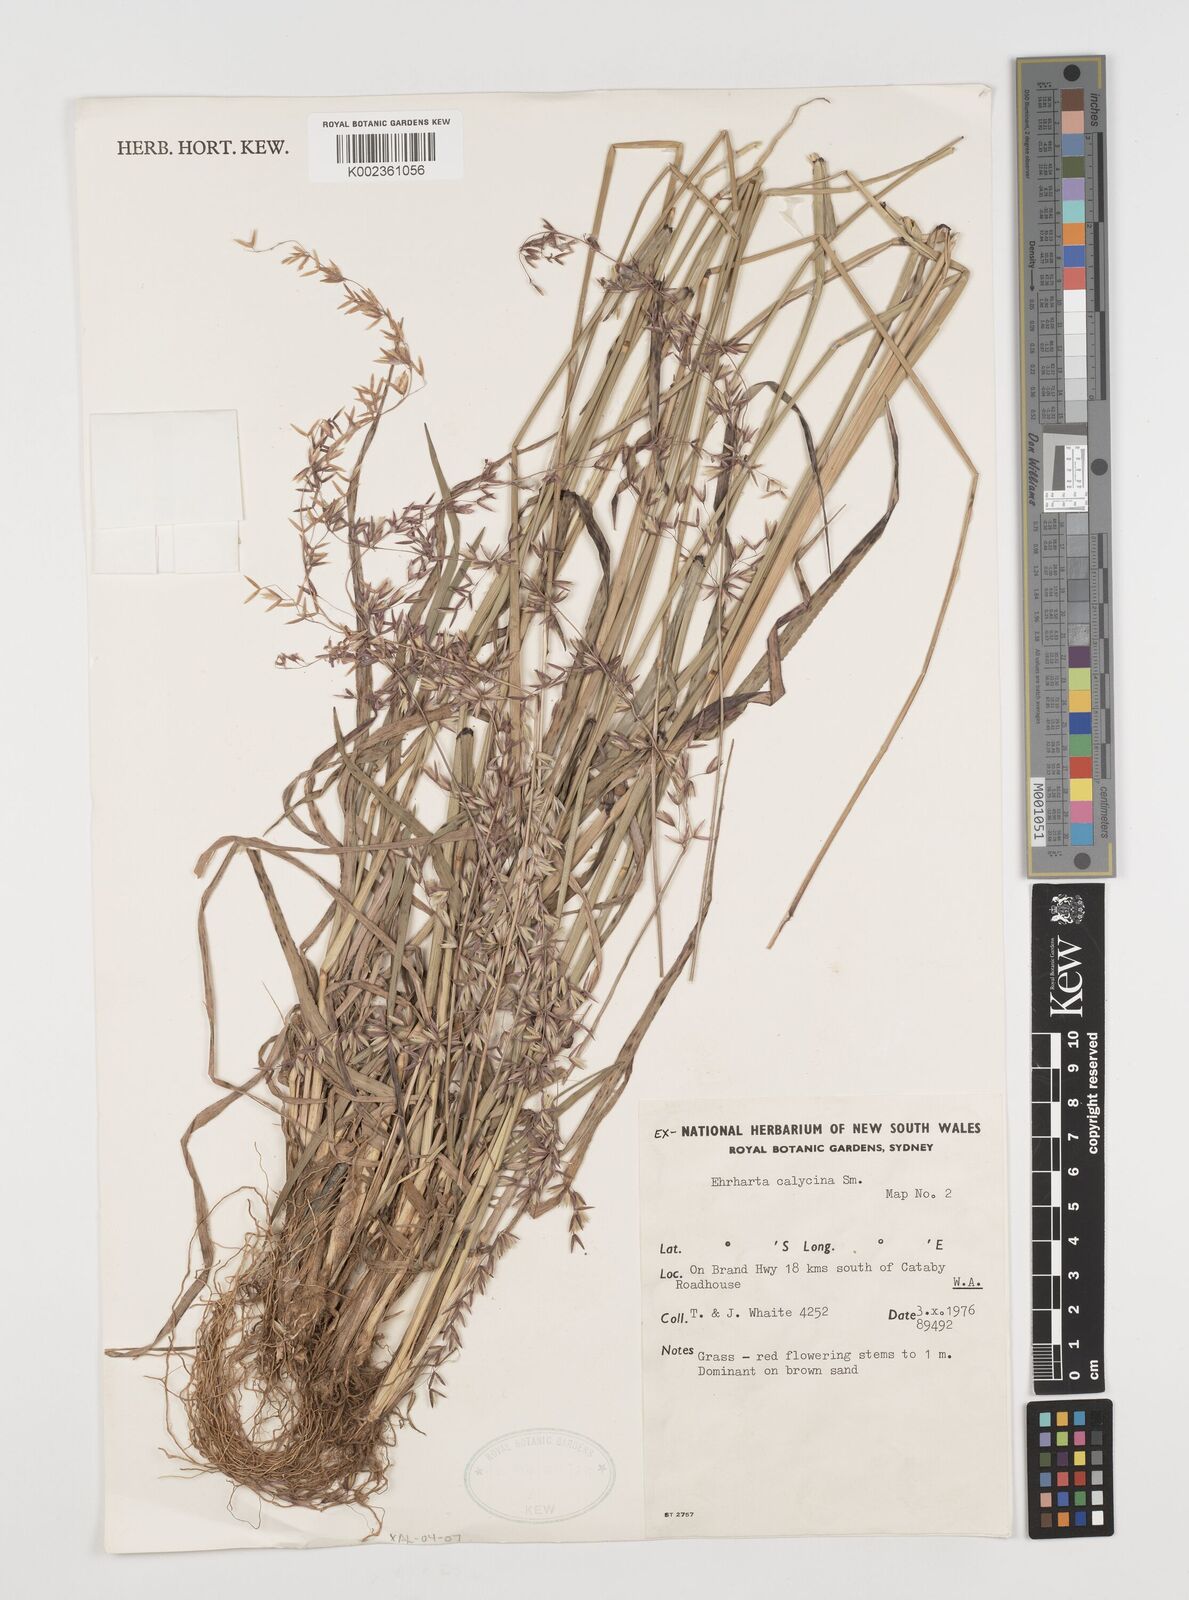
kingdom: Plantae
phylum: Tracheophyta
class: Liliopsida
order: Poales
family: Poaceae
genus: Ehrharta
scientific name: Ehrharta calycina
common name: Perennial veldtgrass
